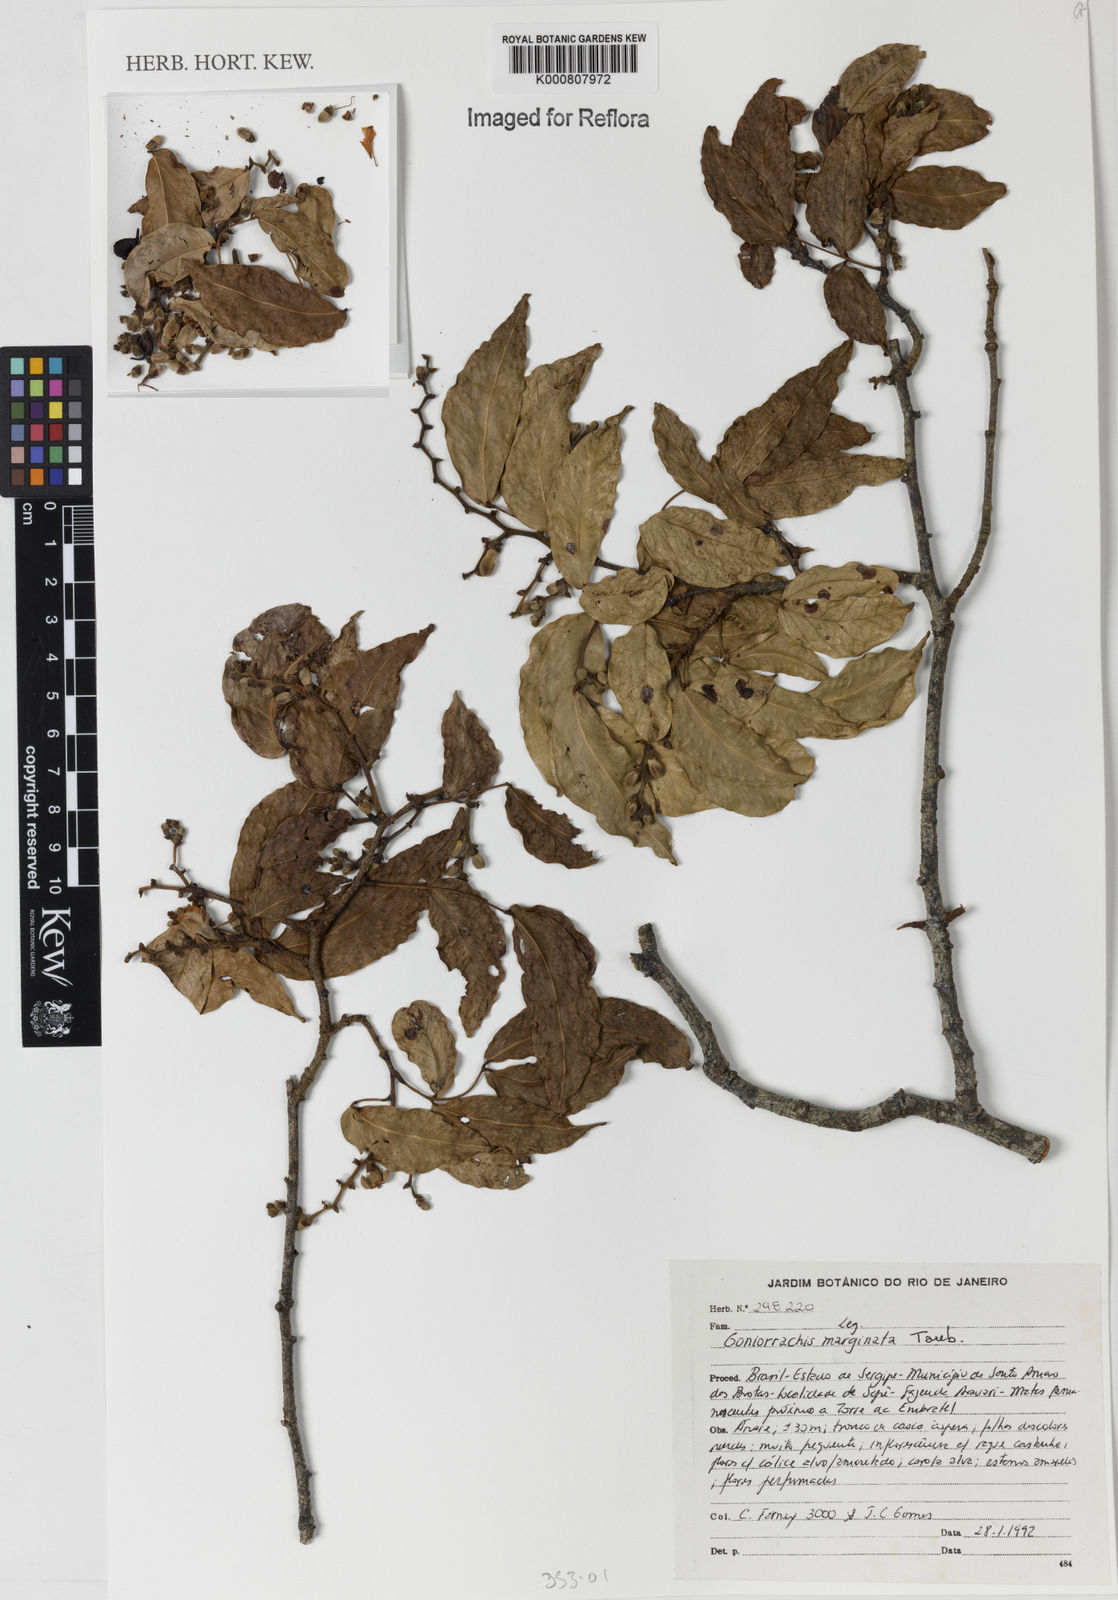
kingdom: Plantae
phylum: Tracheophyta
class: Magnoliopsida
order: Fabales
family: Fabaceae
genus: Goniorrhachis
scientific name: Goniorrhachis marginata
